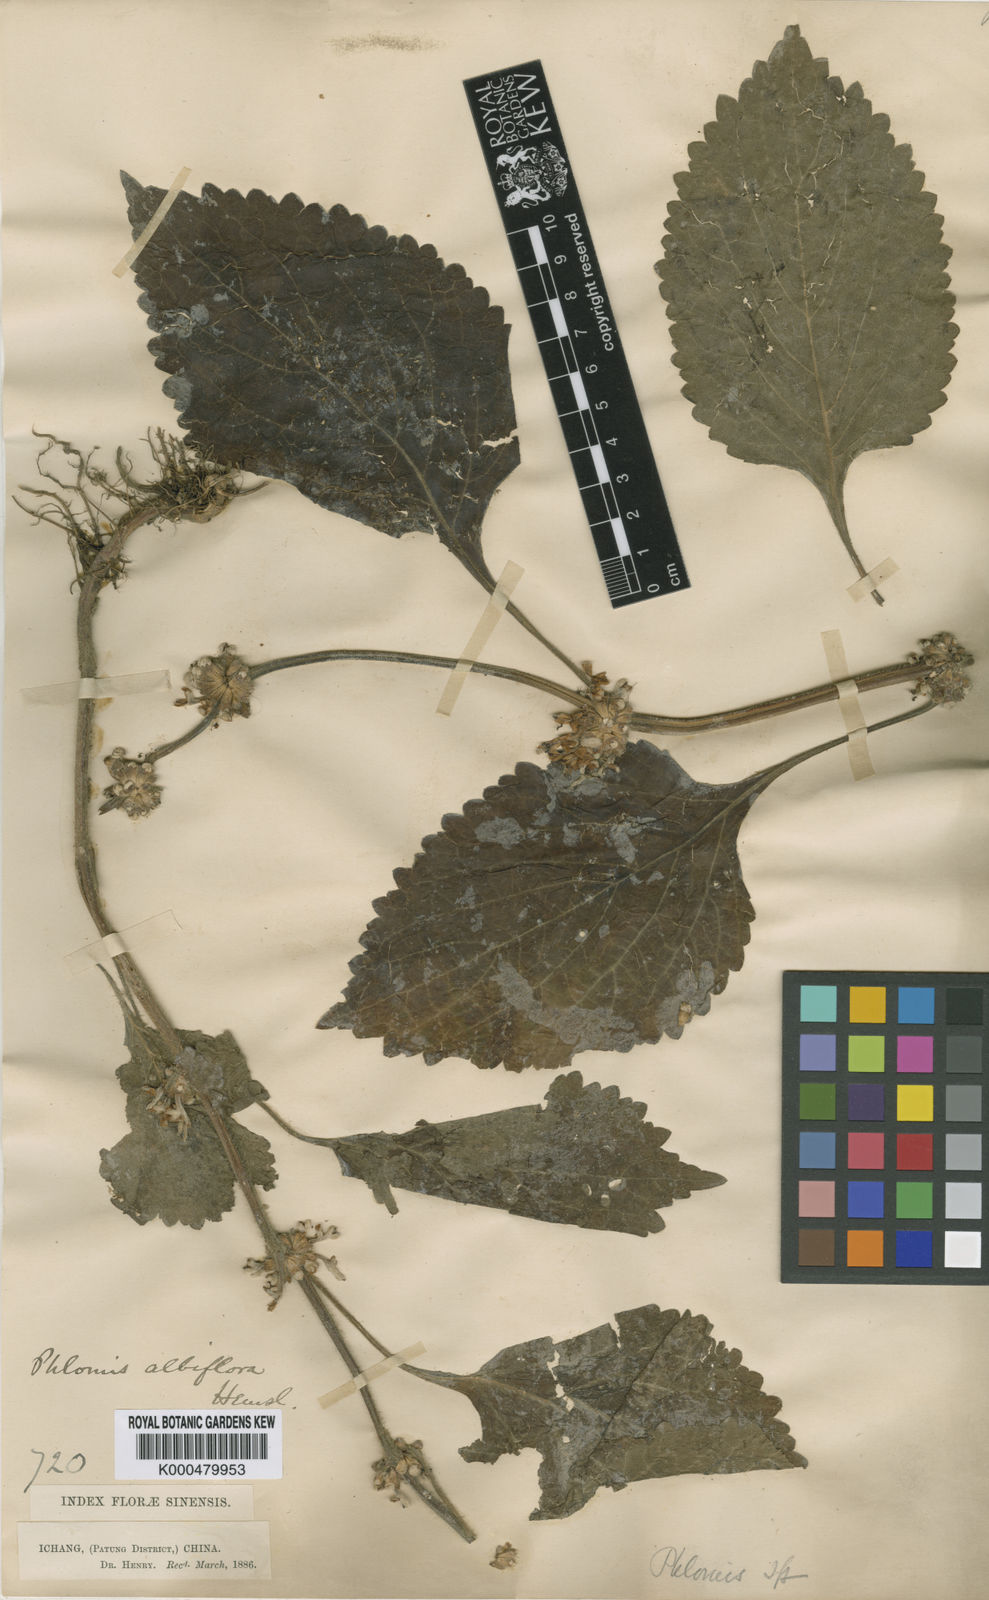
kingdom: Plantae
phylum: Tracheophyta
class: Magnoliopsida
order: Lamiales
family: Lamiaceae
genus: Paraphlomis
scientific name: Paraphlomis albiflora
